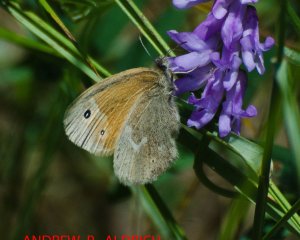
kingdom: Animalia
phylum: Arthropoda
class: Insecta
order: Lepidoptera
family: Nymphalidae
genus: Coenonympha
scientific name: Coenonympha tullia
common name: Large Heath
